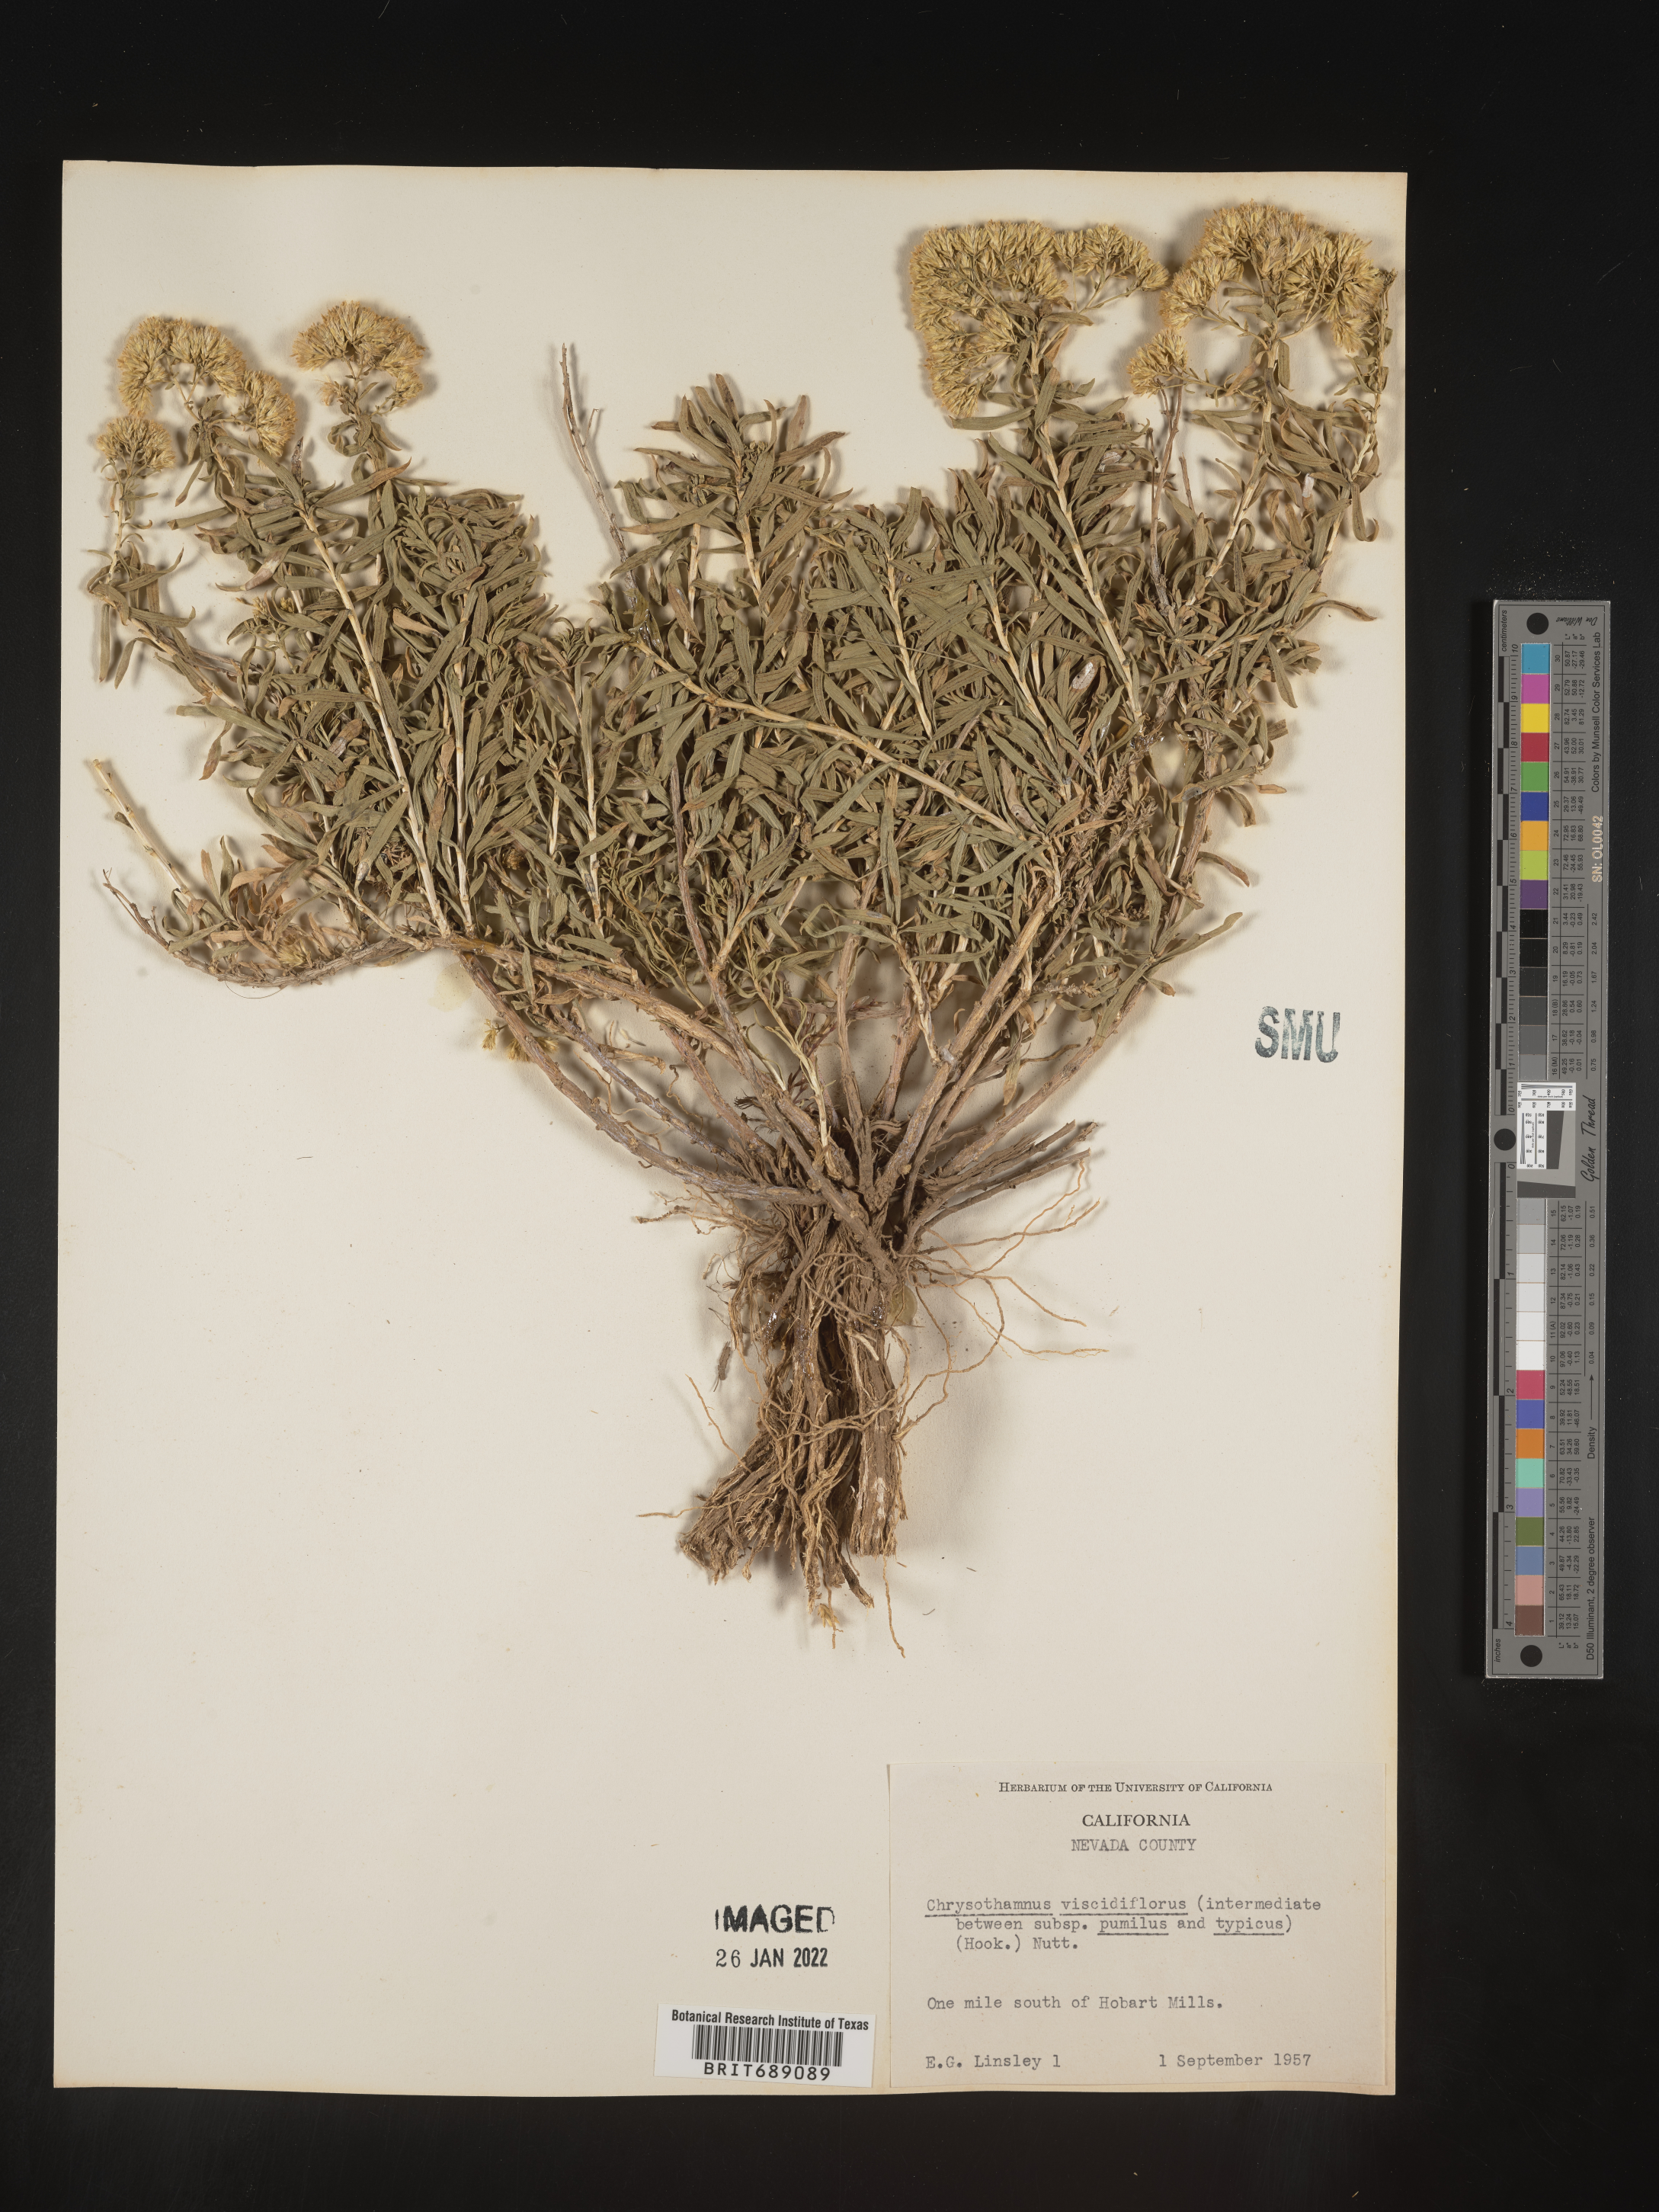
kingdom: Plantae
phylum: Tracheophyta
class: Magnoliopsida
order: Asterales
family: Asteraceae
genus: Chrysothamnus
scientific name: Chrysothamnus viscidiflorus
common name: Yellow rabbitbrush
